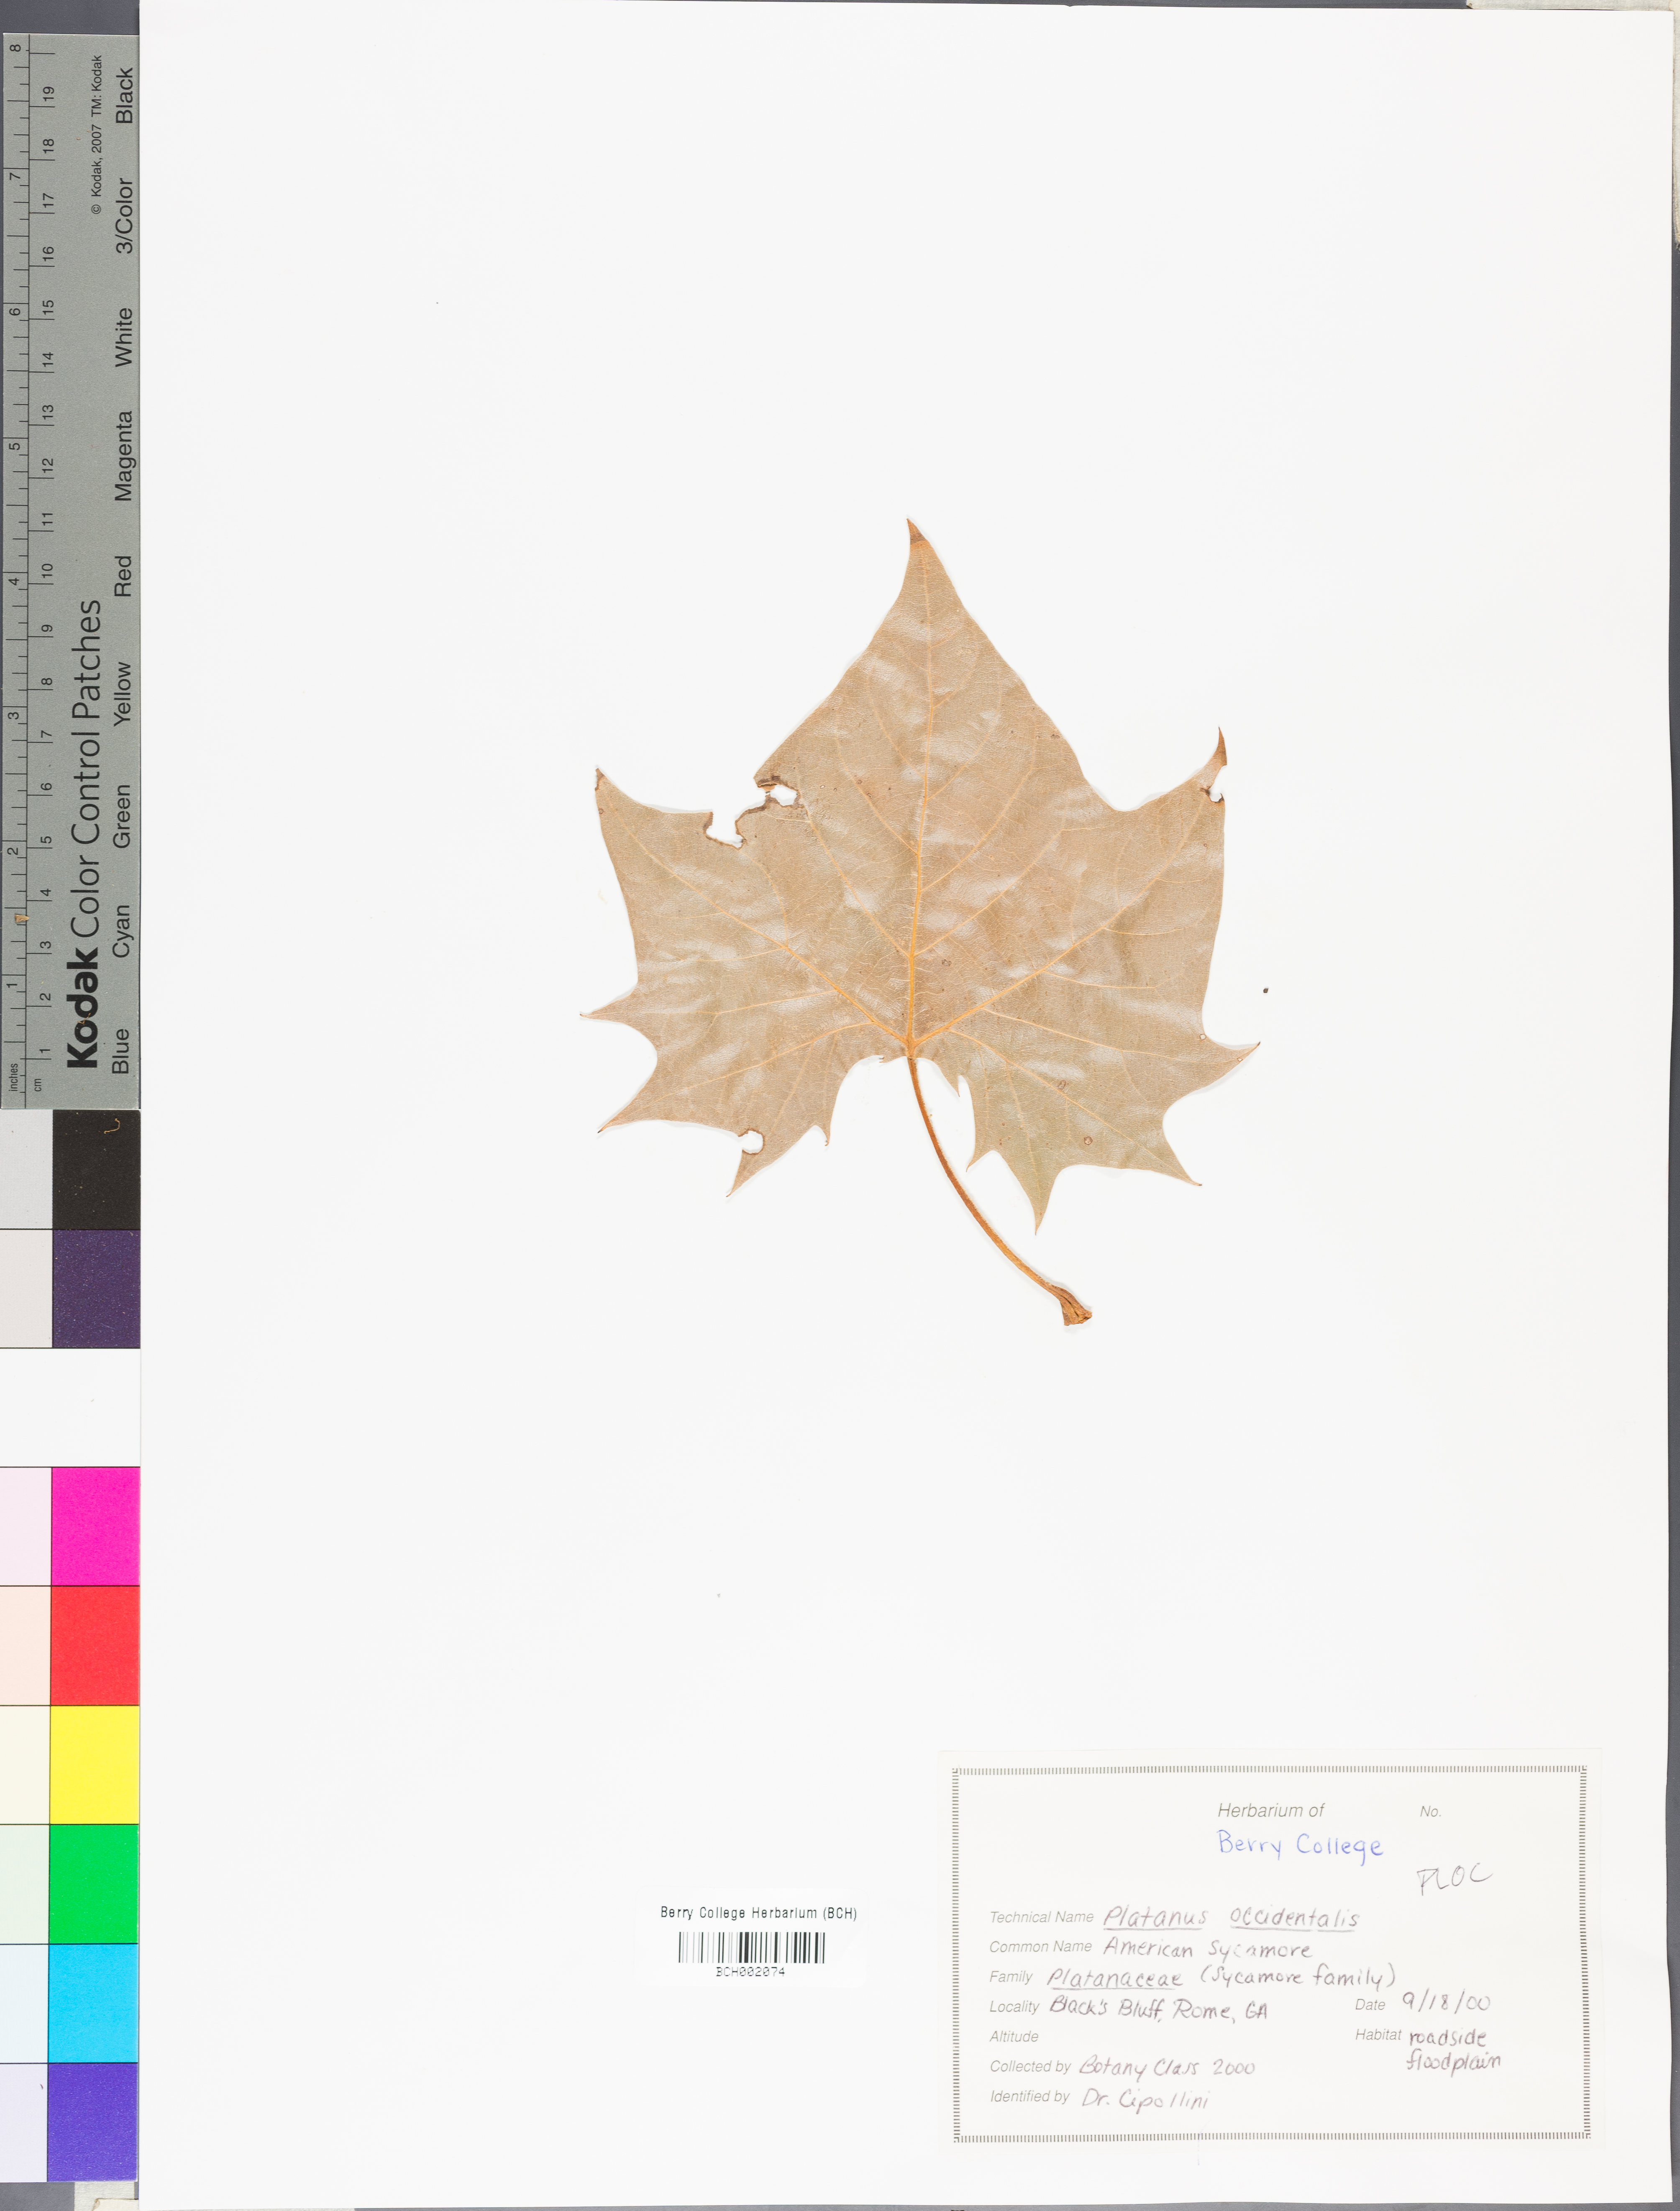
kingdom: Plantae
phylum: Tracheophyta
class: Magnoliopsida
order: Proteales
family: Platanaceae
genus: Platanus
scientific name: Platanus occidentalis
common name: American sycamore
